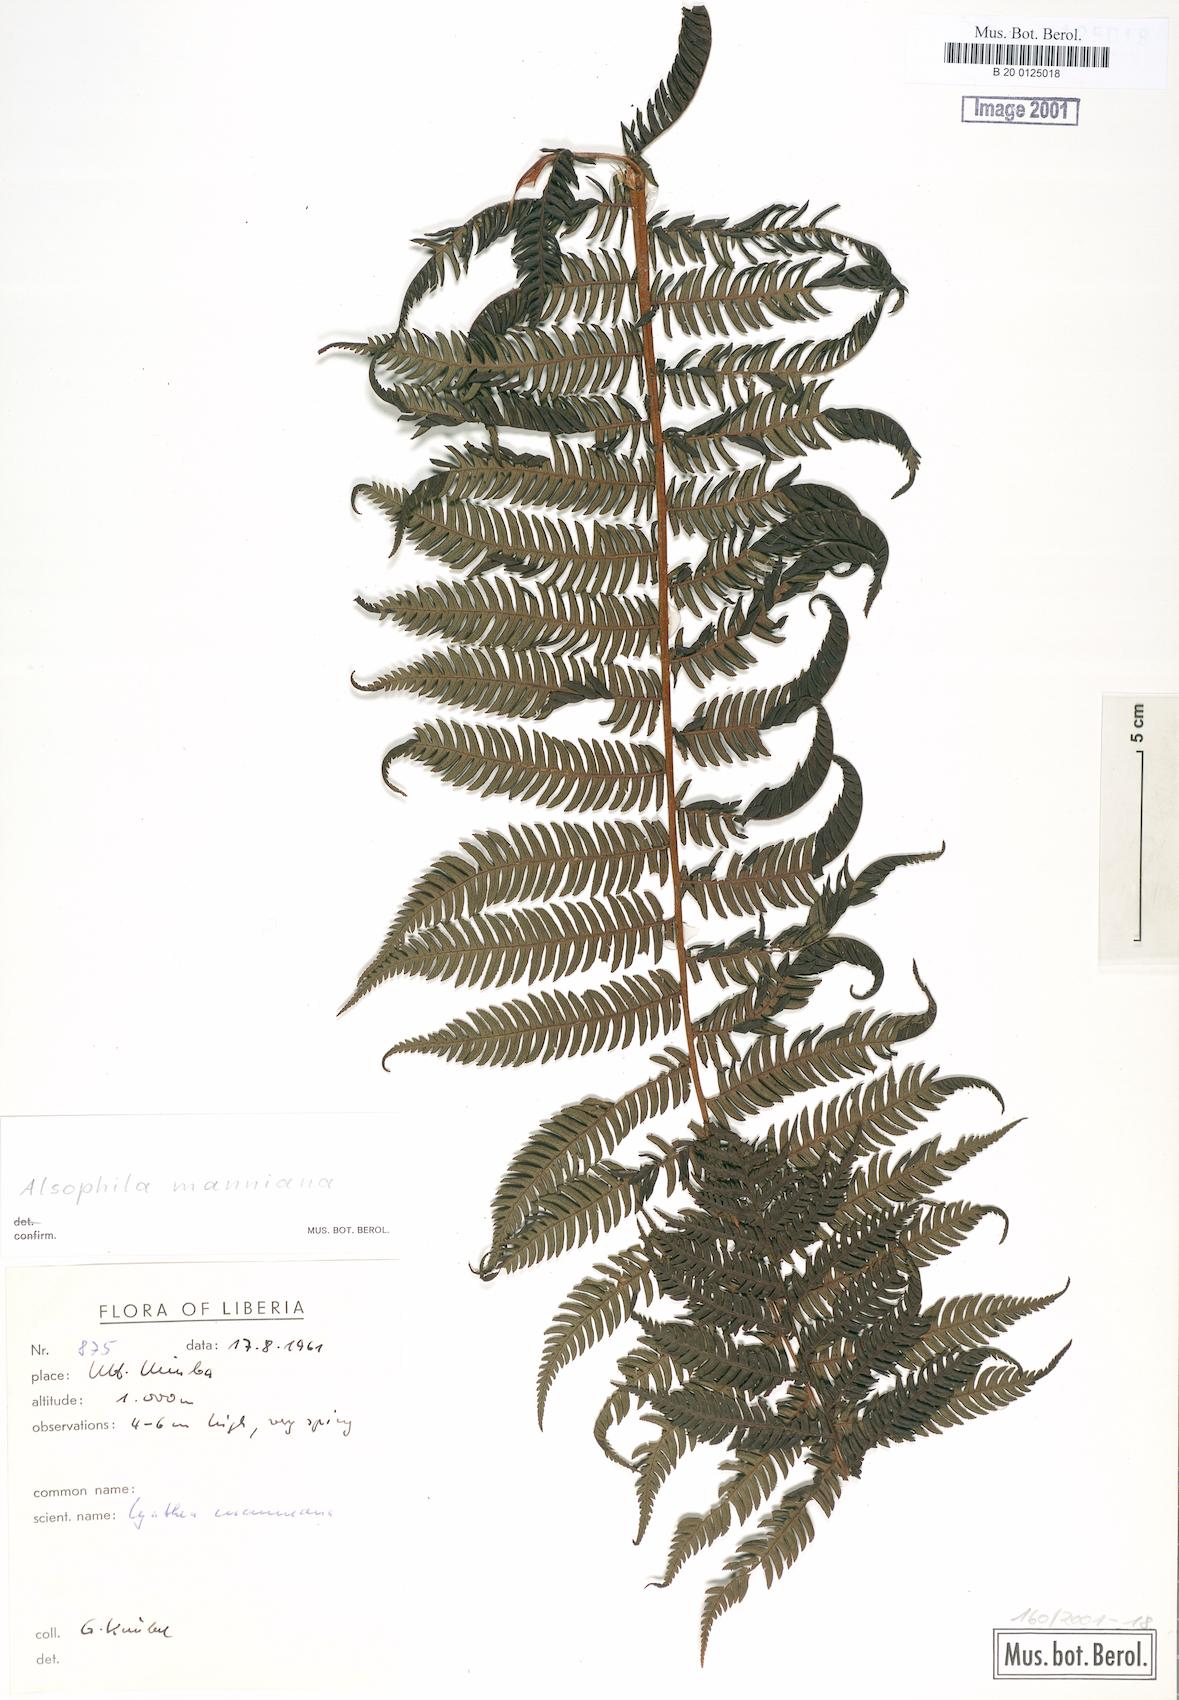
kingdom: Plantae
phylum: Tracheophyta
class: Polypodiopsida
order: Cyatheales
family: Cyatheaceae
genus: Alsophila
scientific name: Alsophila manniana
